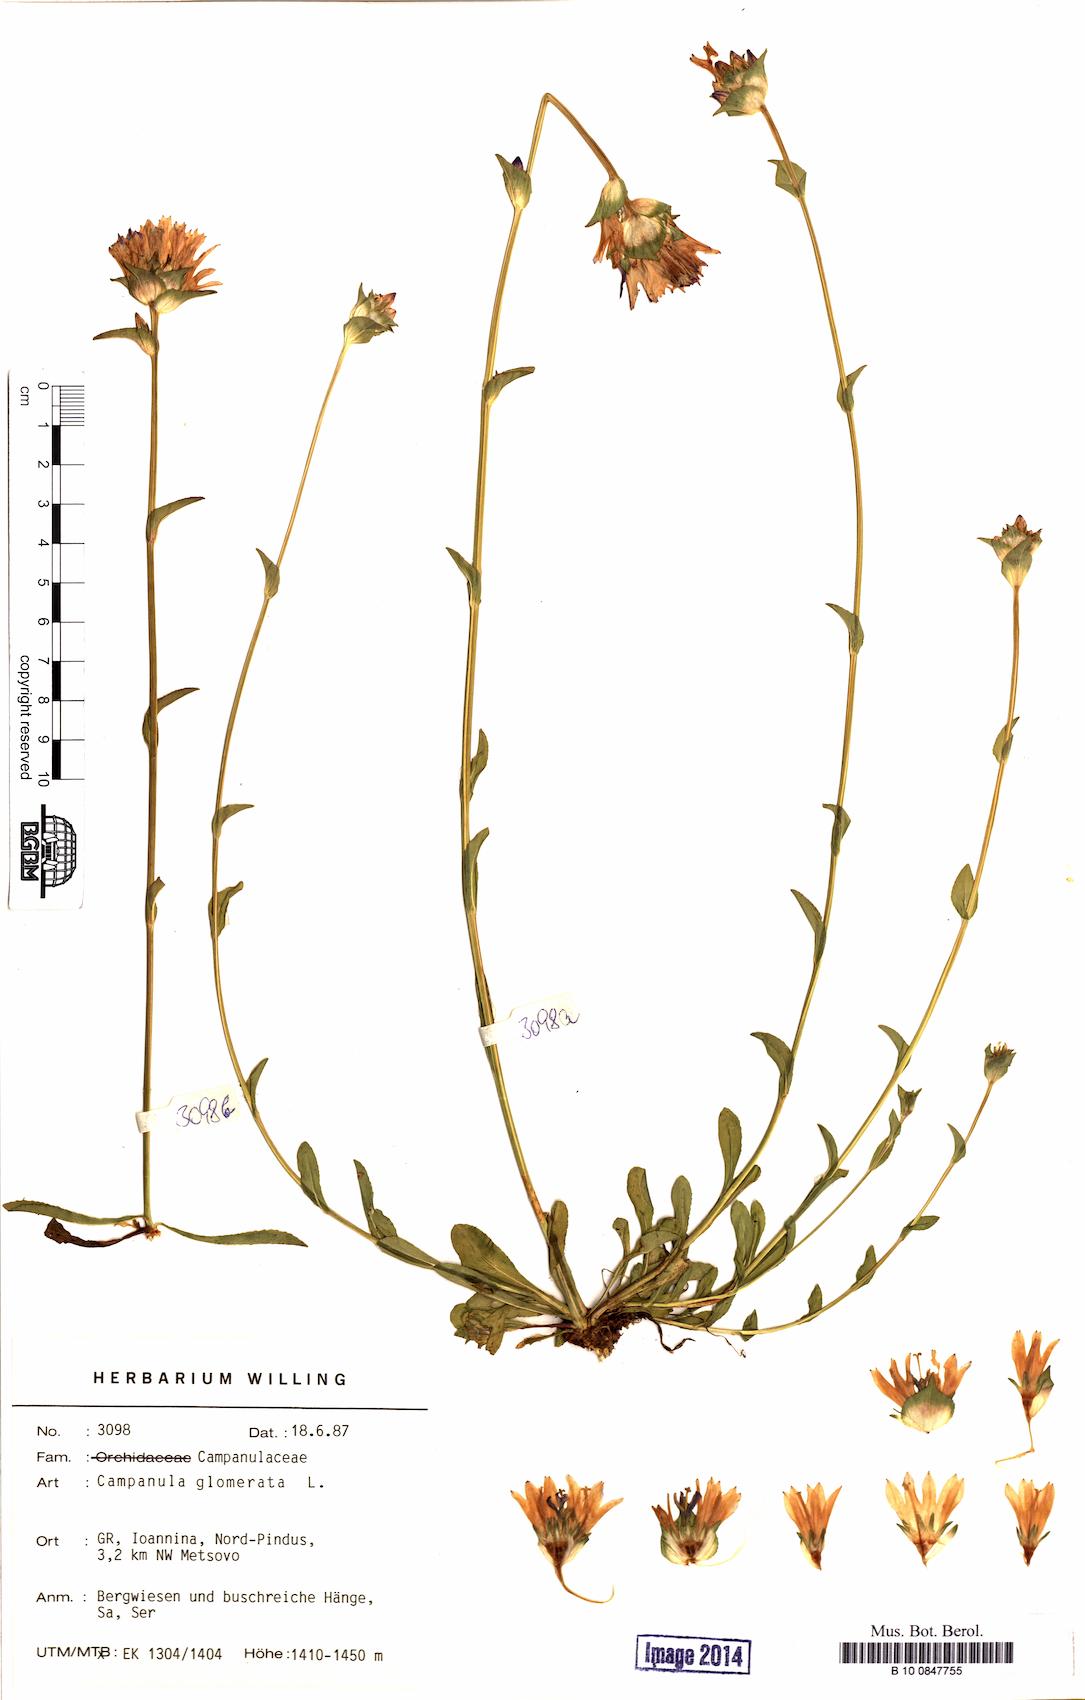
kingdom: Plantae
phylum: Tracheophyta
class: Magnoliopsida
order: Asterales
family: Campanulaceae
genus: Campanula
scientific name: Campanula glomerata
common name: Clustered bellflower
